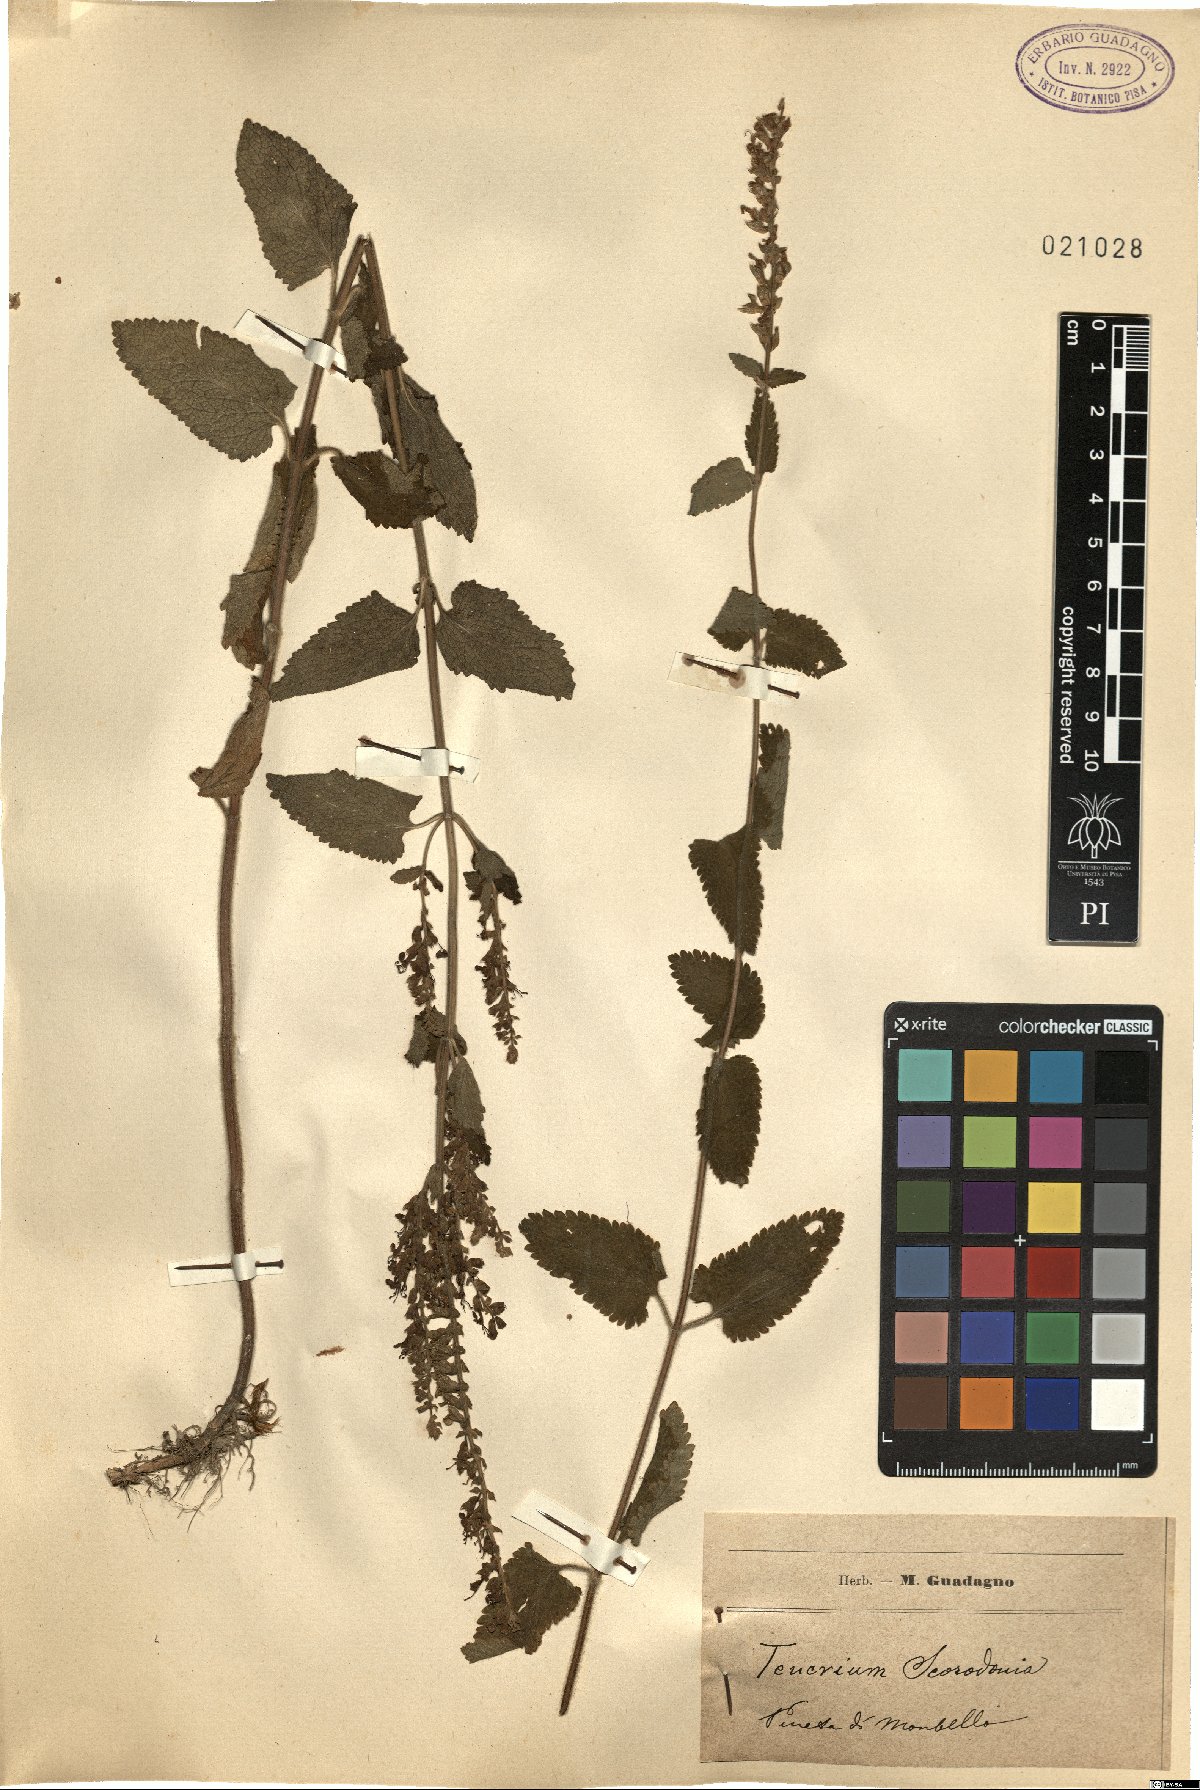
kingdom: Plantae
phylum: Tracheophyta
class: Magnoliopsida
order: Lamiales
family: Lamiaceae
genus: Teucrium
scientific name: Teucrium scorodonia
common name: Woodland germander
